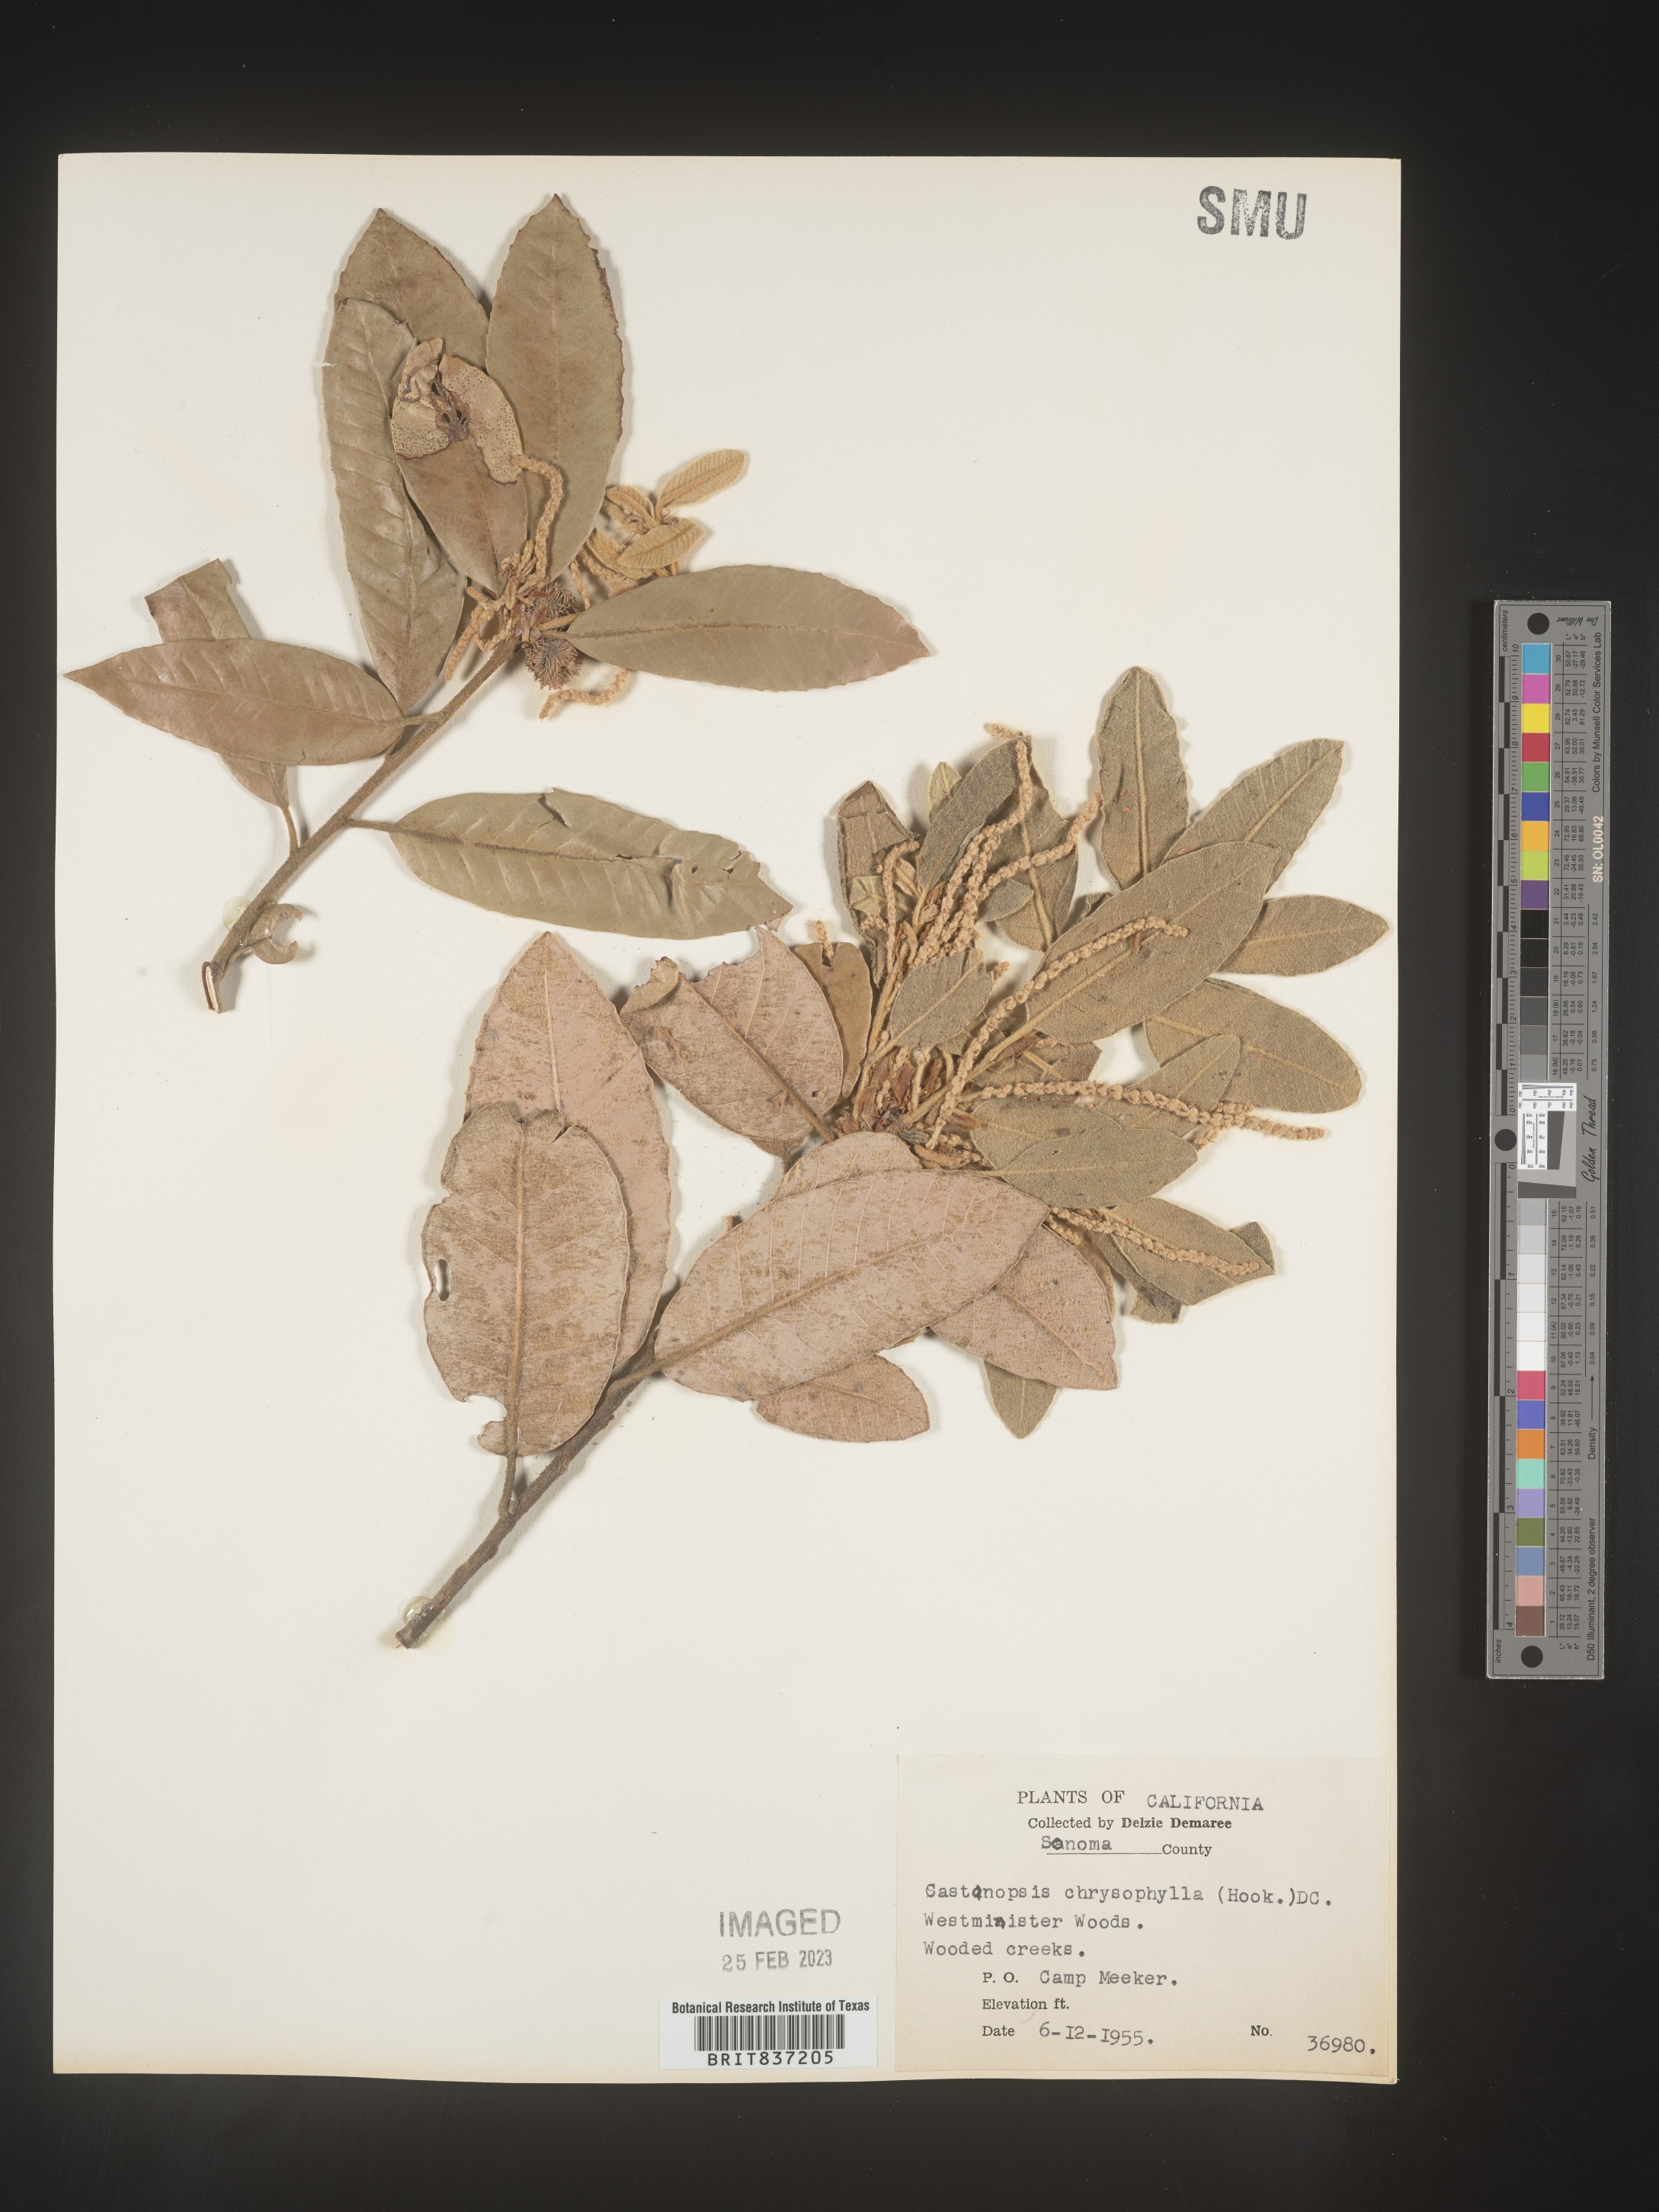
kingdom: Plantae
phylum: Tracheophyta
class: Magnoliopsida
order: Fagales
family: Fagaceae
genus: Castanopsis
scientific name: Castanopsis
